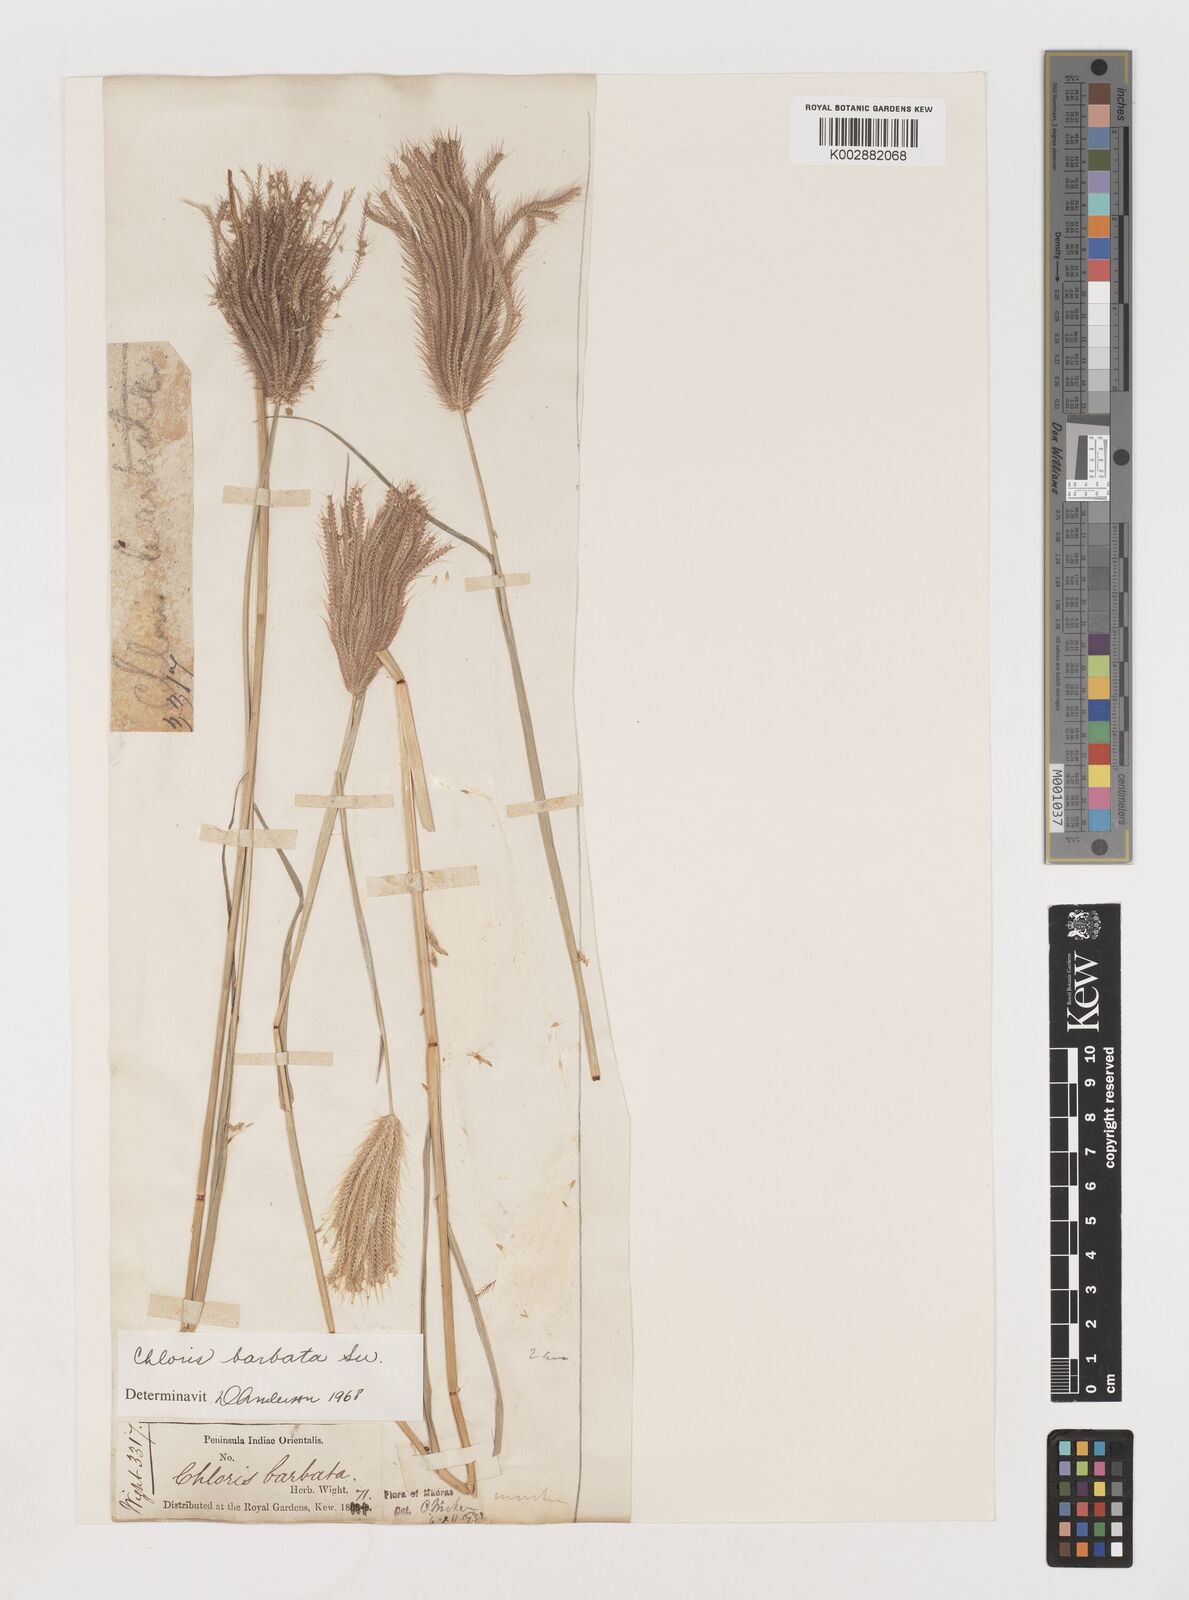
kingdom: Plantae
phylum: Tracheophyta
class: Liliopsida
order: Poales
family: Poaceae
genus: Chloris
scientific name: Chloris barbata
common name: Swollen fingergrass
